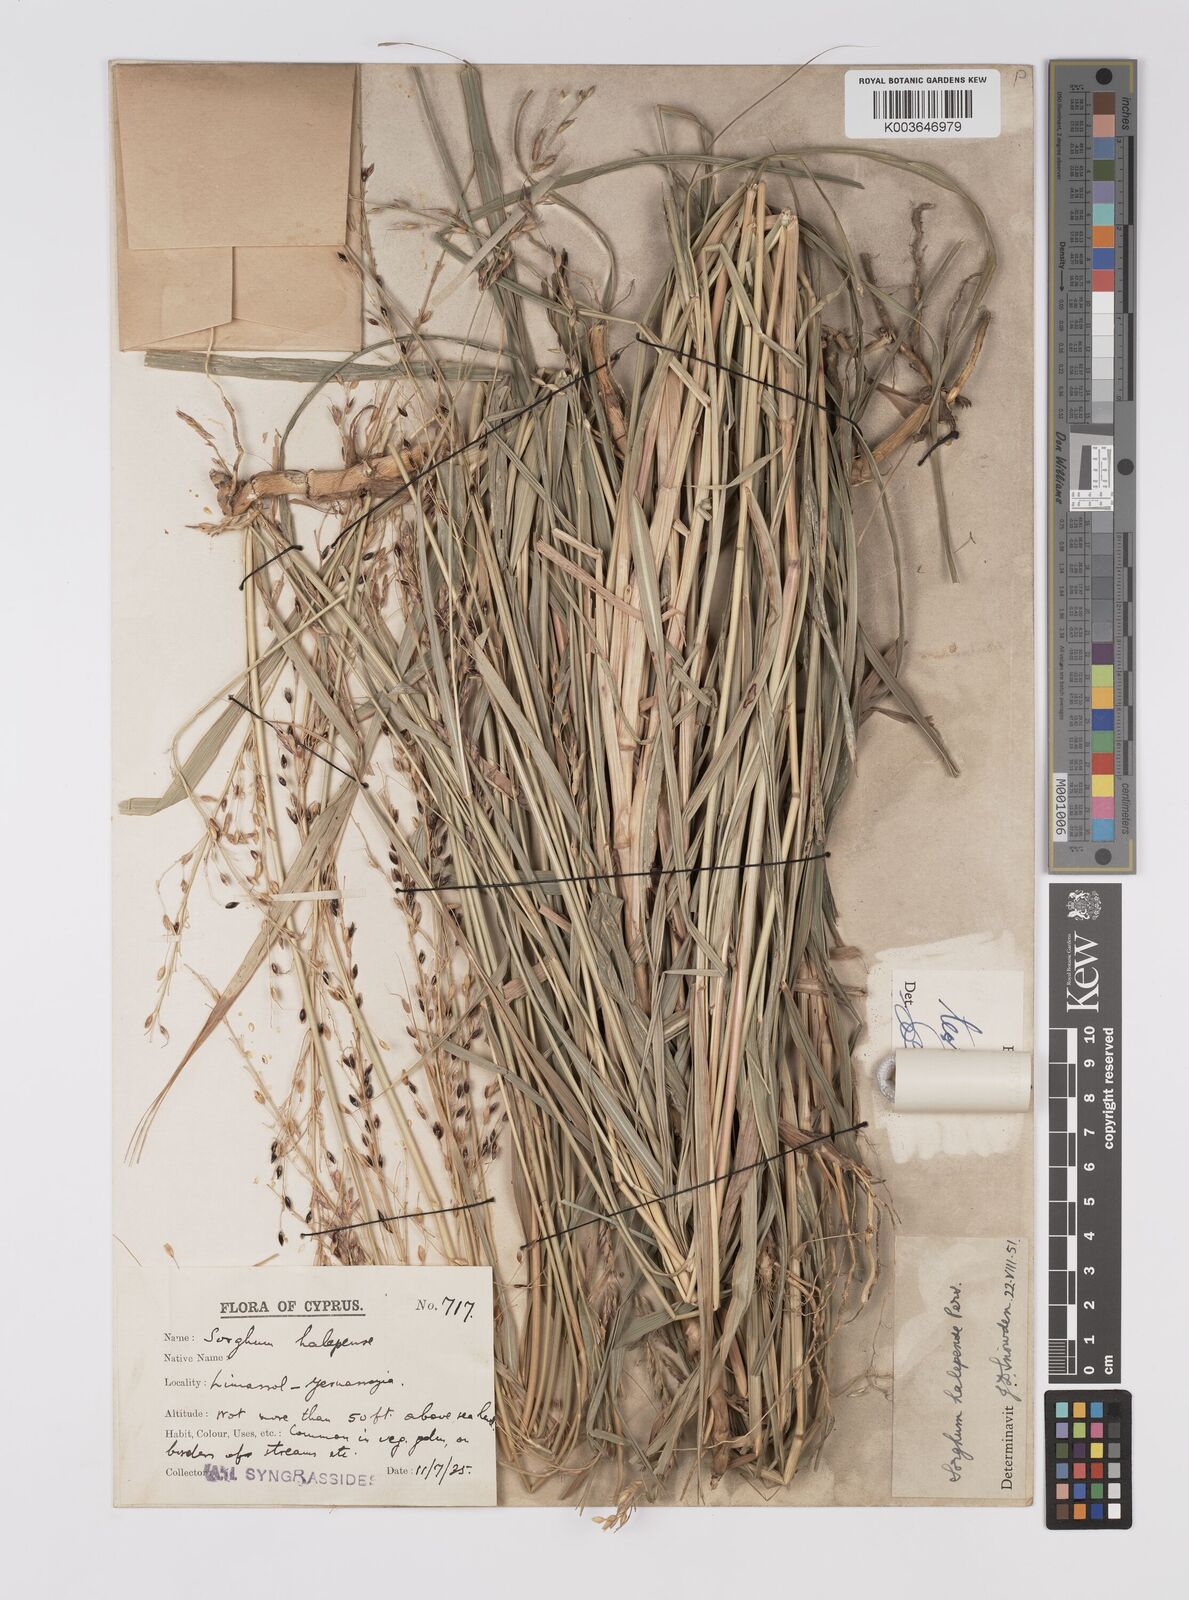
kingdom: Plantae
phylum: Tracheophyta
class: Liliopsida
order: Poales
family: Poaceae
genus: Sorghum
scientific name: Sorghum halepense
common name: Johnson-grass
